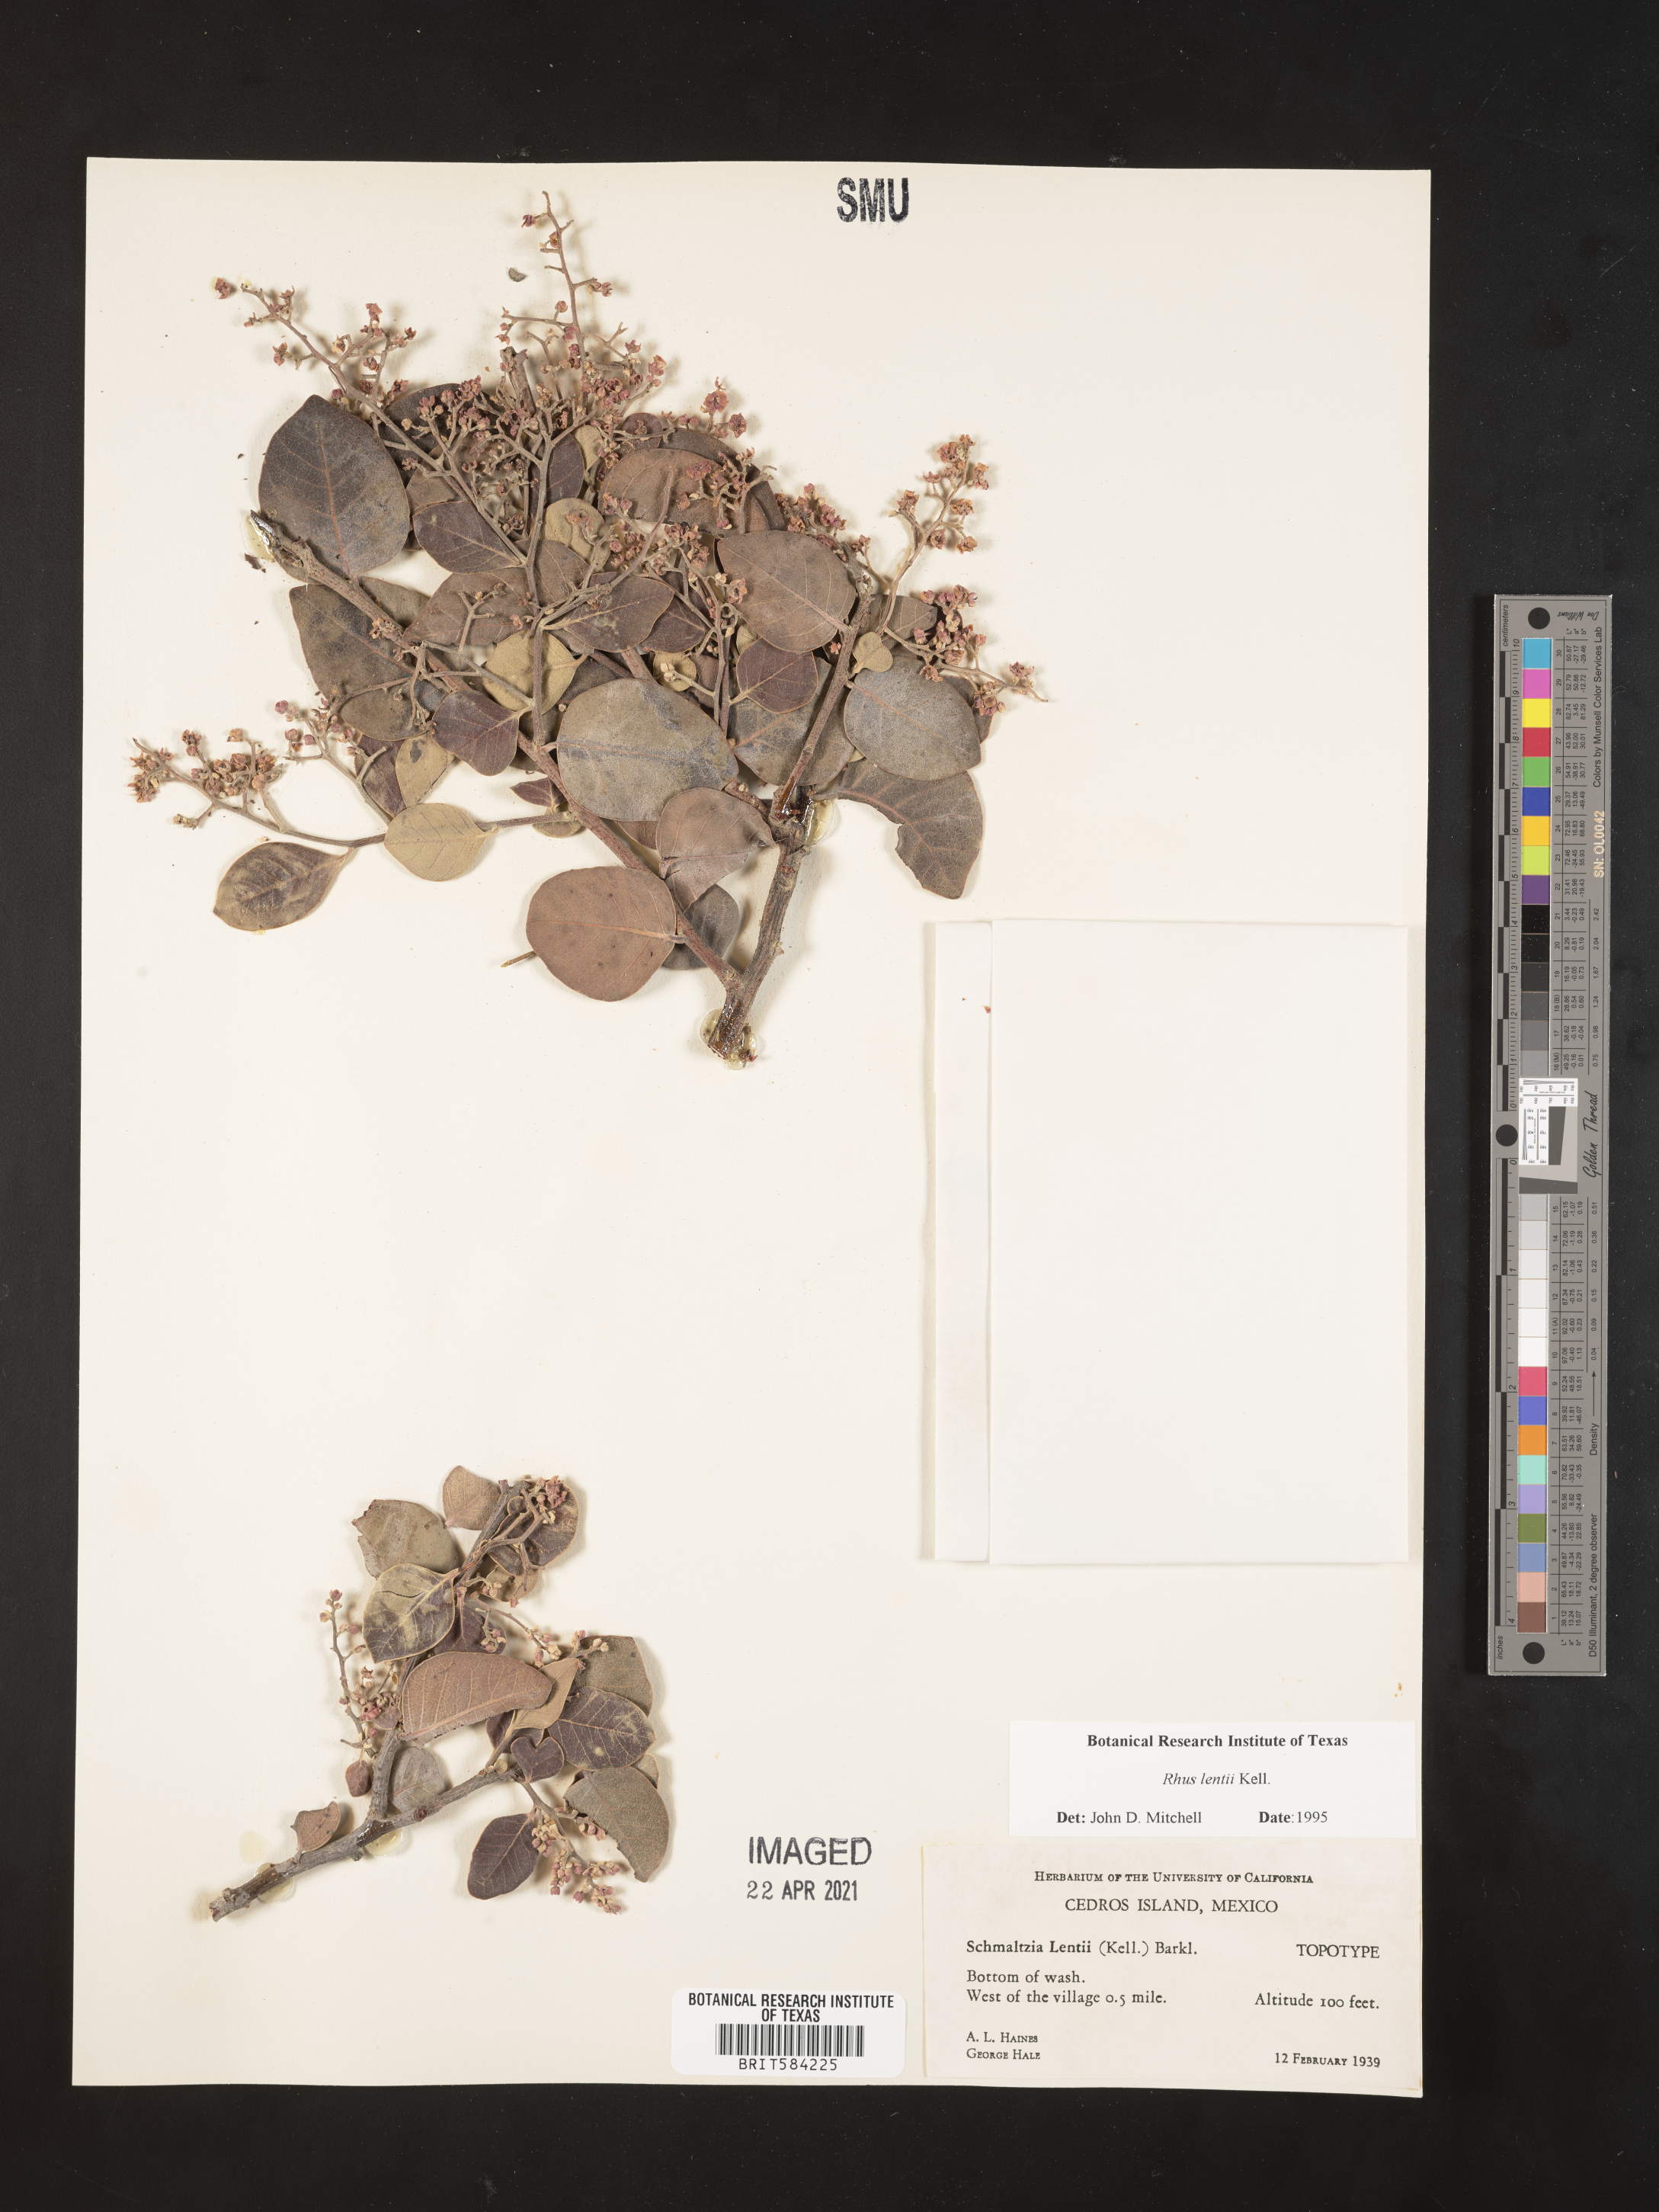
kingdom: Plantae
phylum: Tracheophyta
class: Magnoliopsida
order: Sapindales
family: Anacardiaceae
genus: Rhus
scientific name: Rhus lentii
